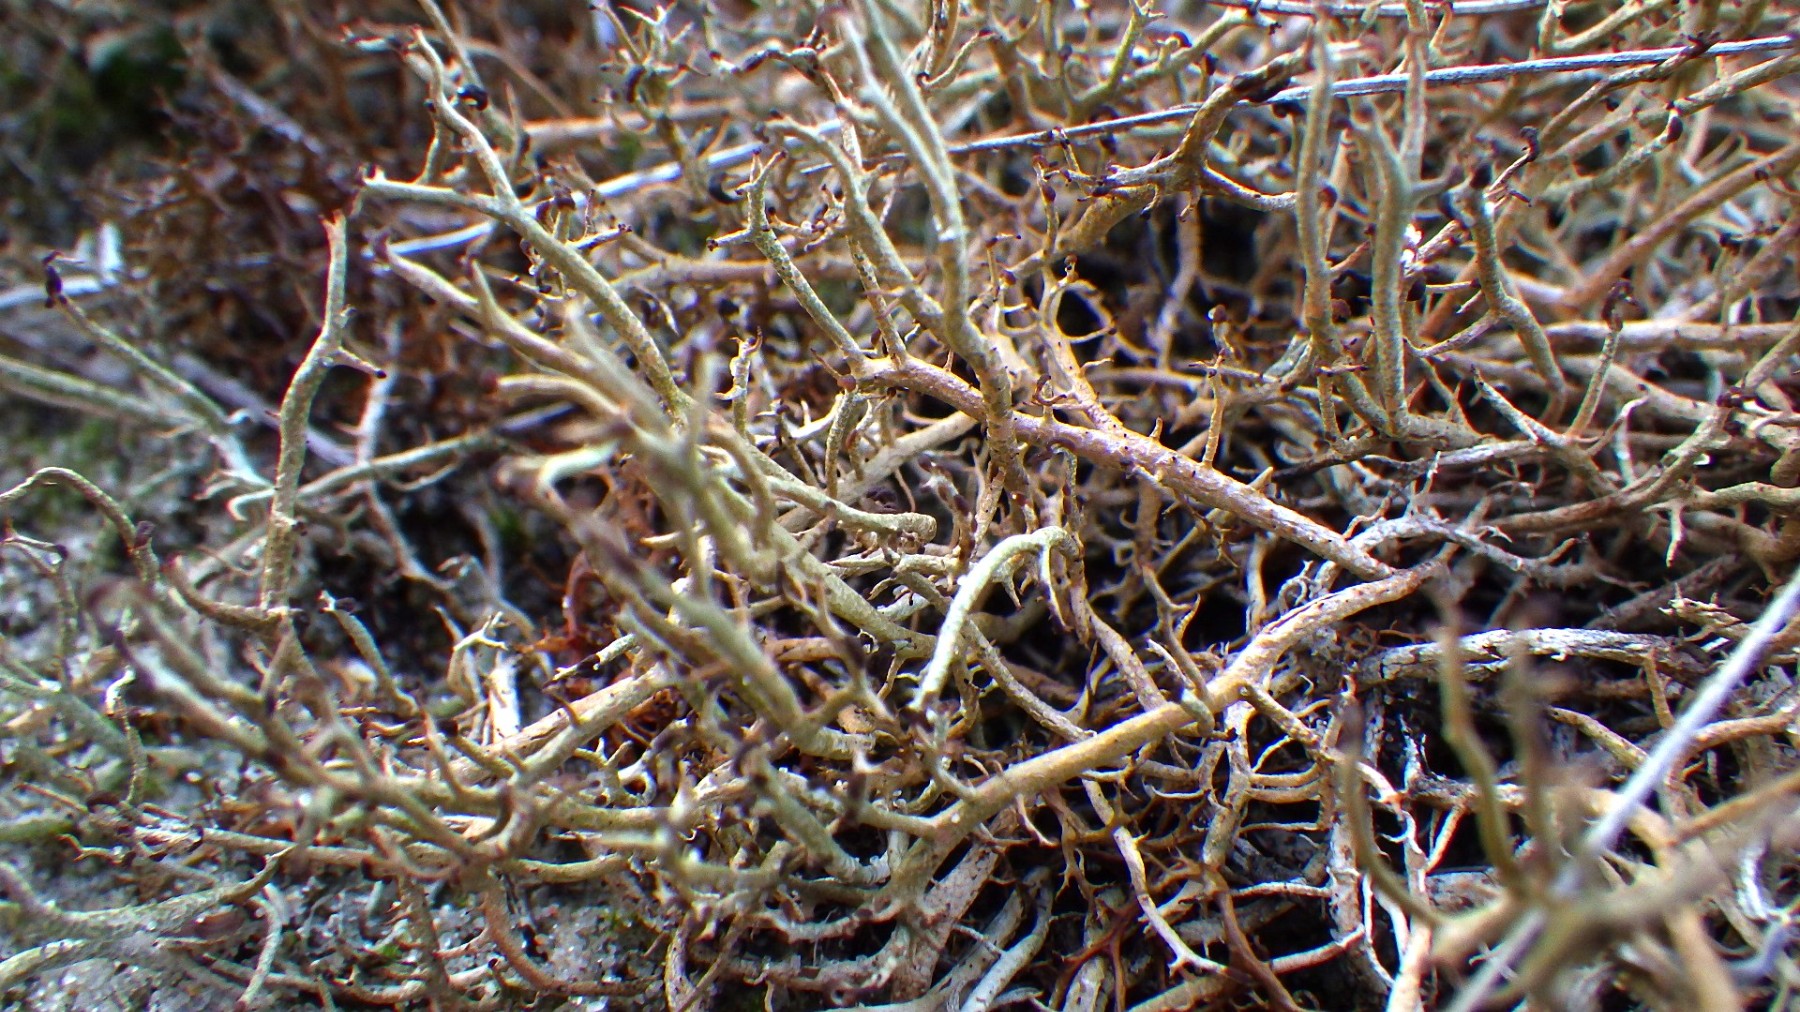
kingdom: Fungi
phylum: Ascomycota
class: Lecanoromycetes
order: Lecanorales
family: Cladoniaceae
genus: Cladonia
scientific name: Cladonia furcata
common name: kløftet bægerlav
